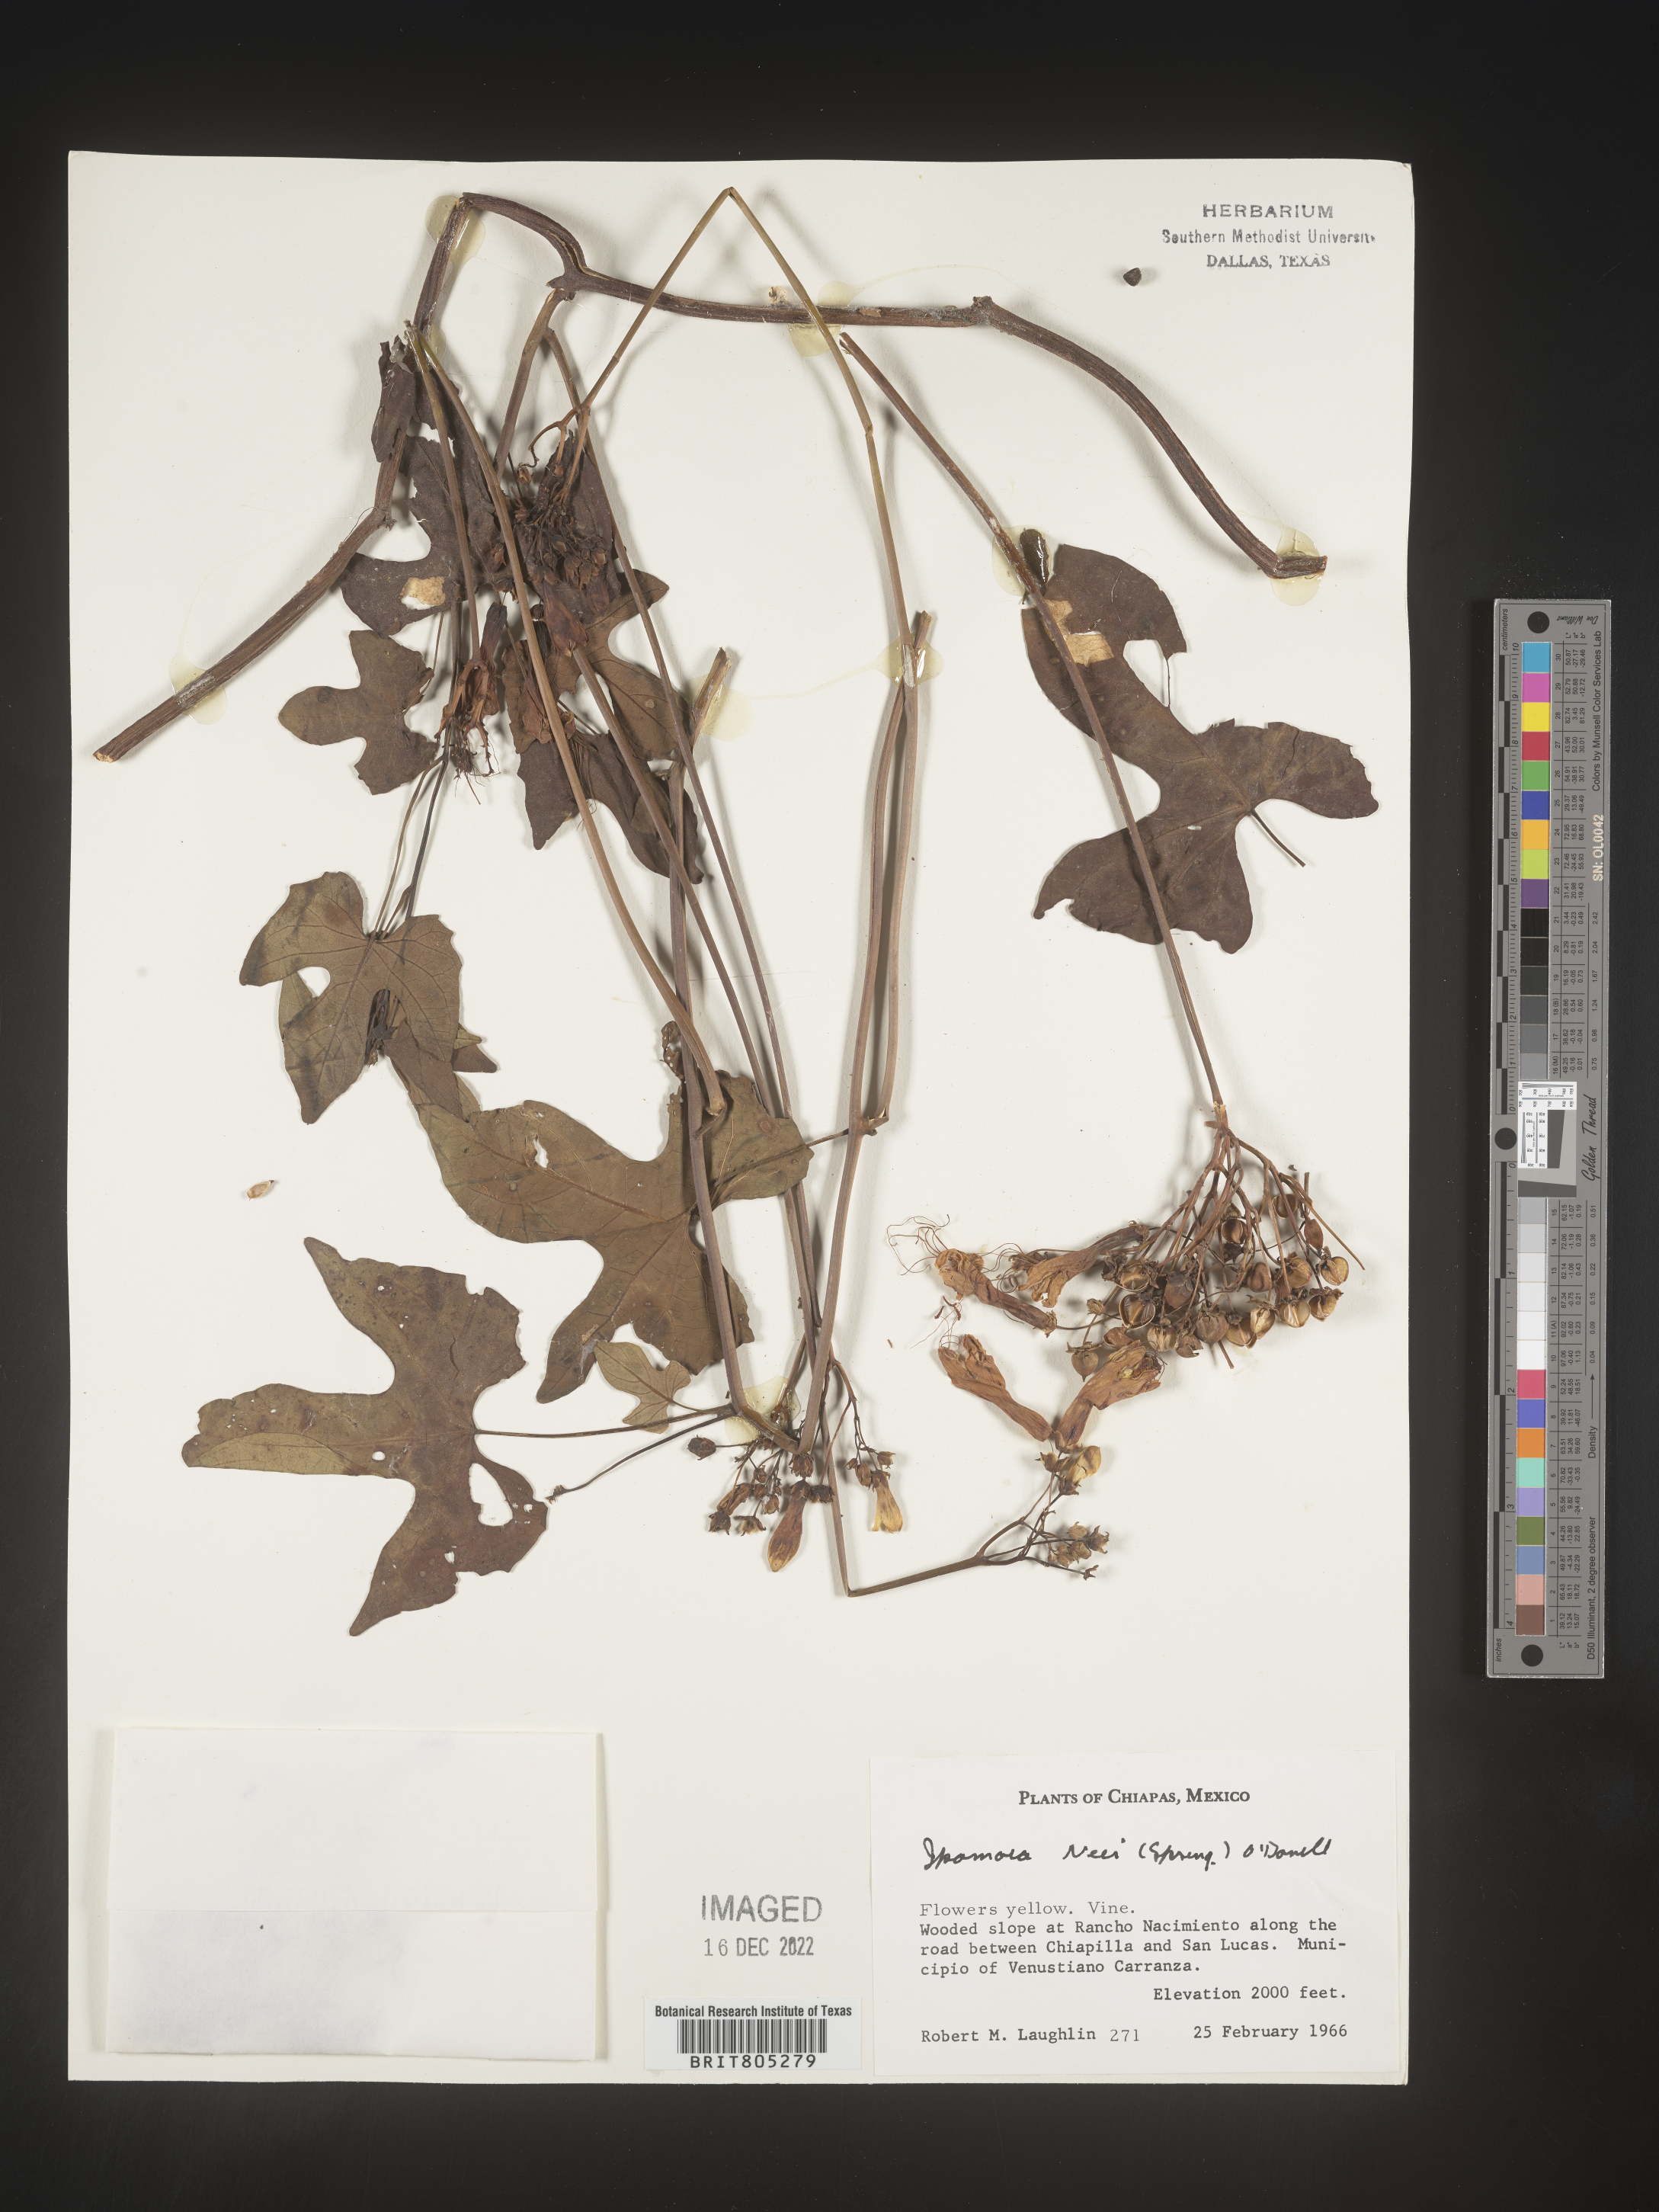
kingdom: Plantae
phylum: Tracheophyta
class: Magnoliopsida
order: Solanales
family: Convolvulaceae
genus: Ipomoea
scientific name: Ipomoea
